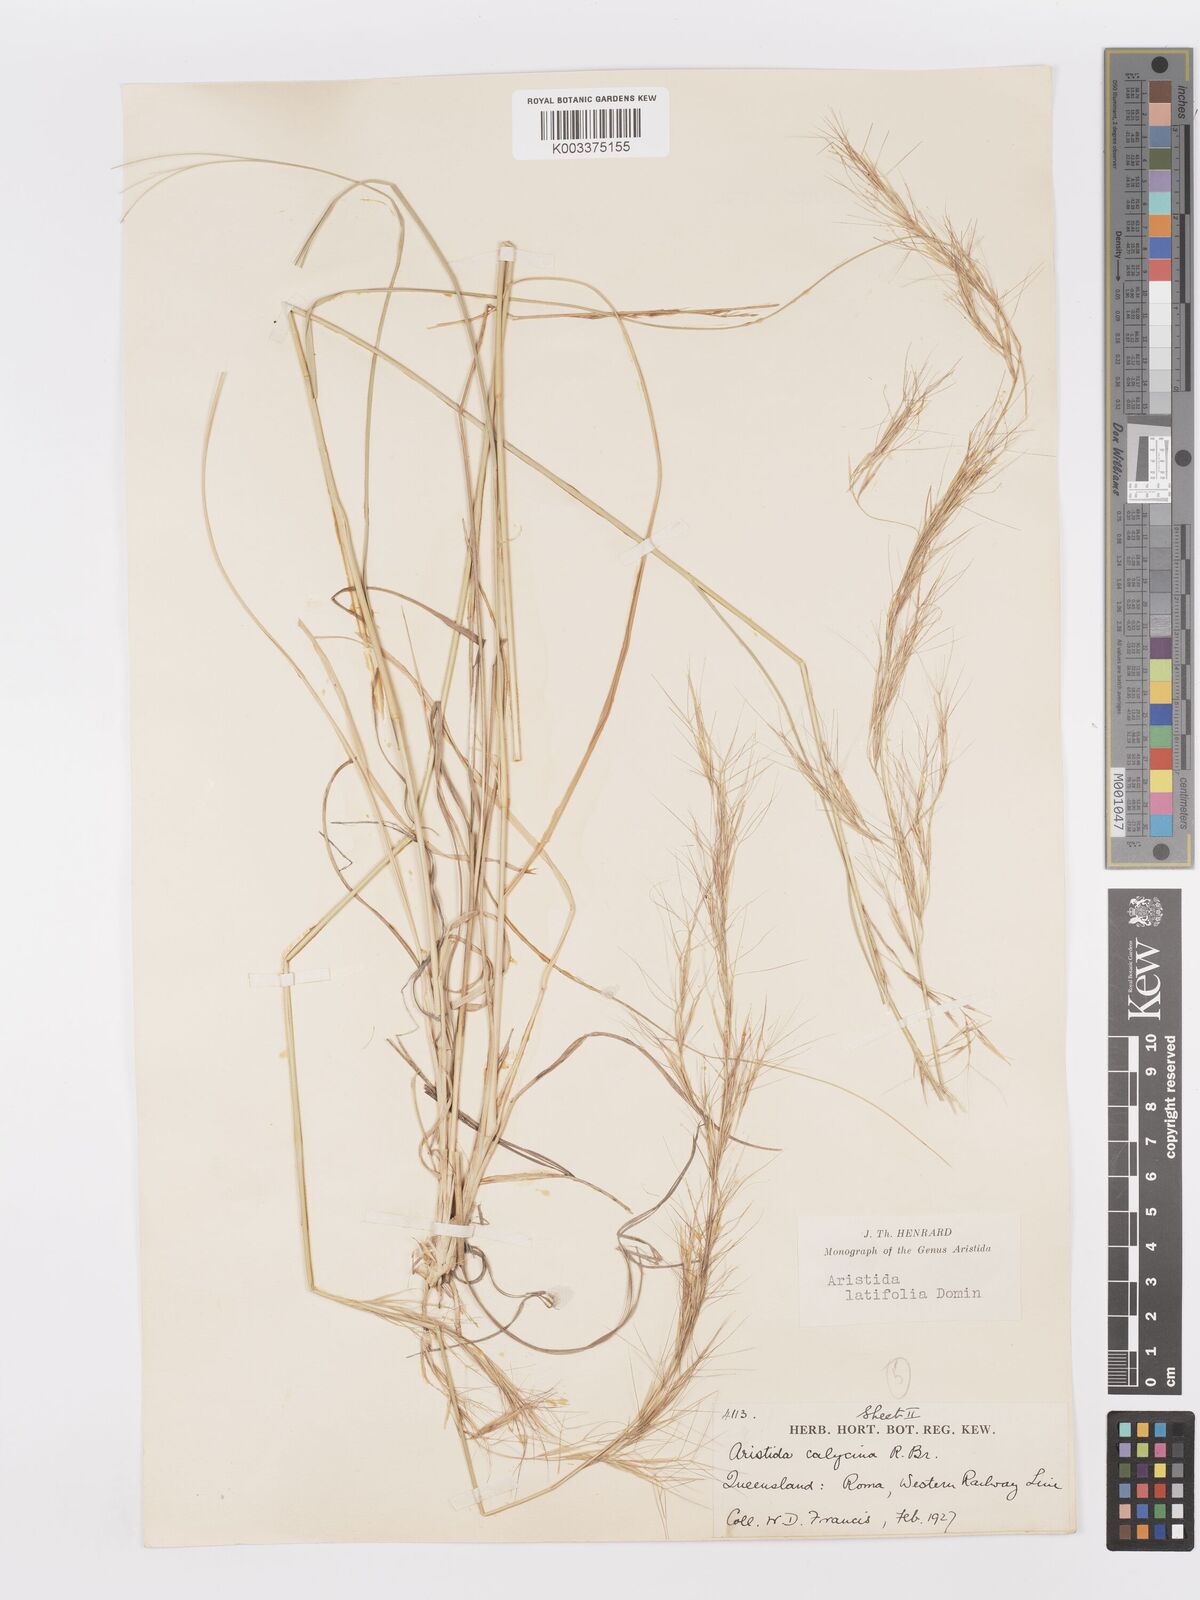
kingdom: Plantae
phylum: Tracheophyta
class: Liliopsida
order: Poales
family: Poaceae
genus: Aristida
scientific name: Aristida latifolia
